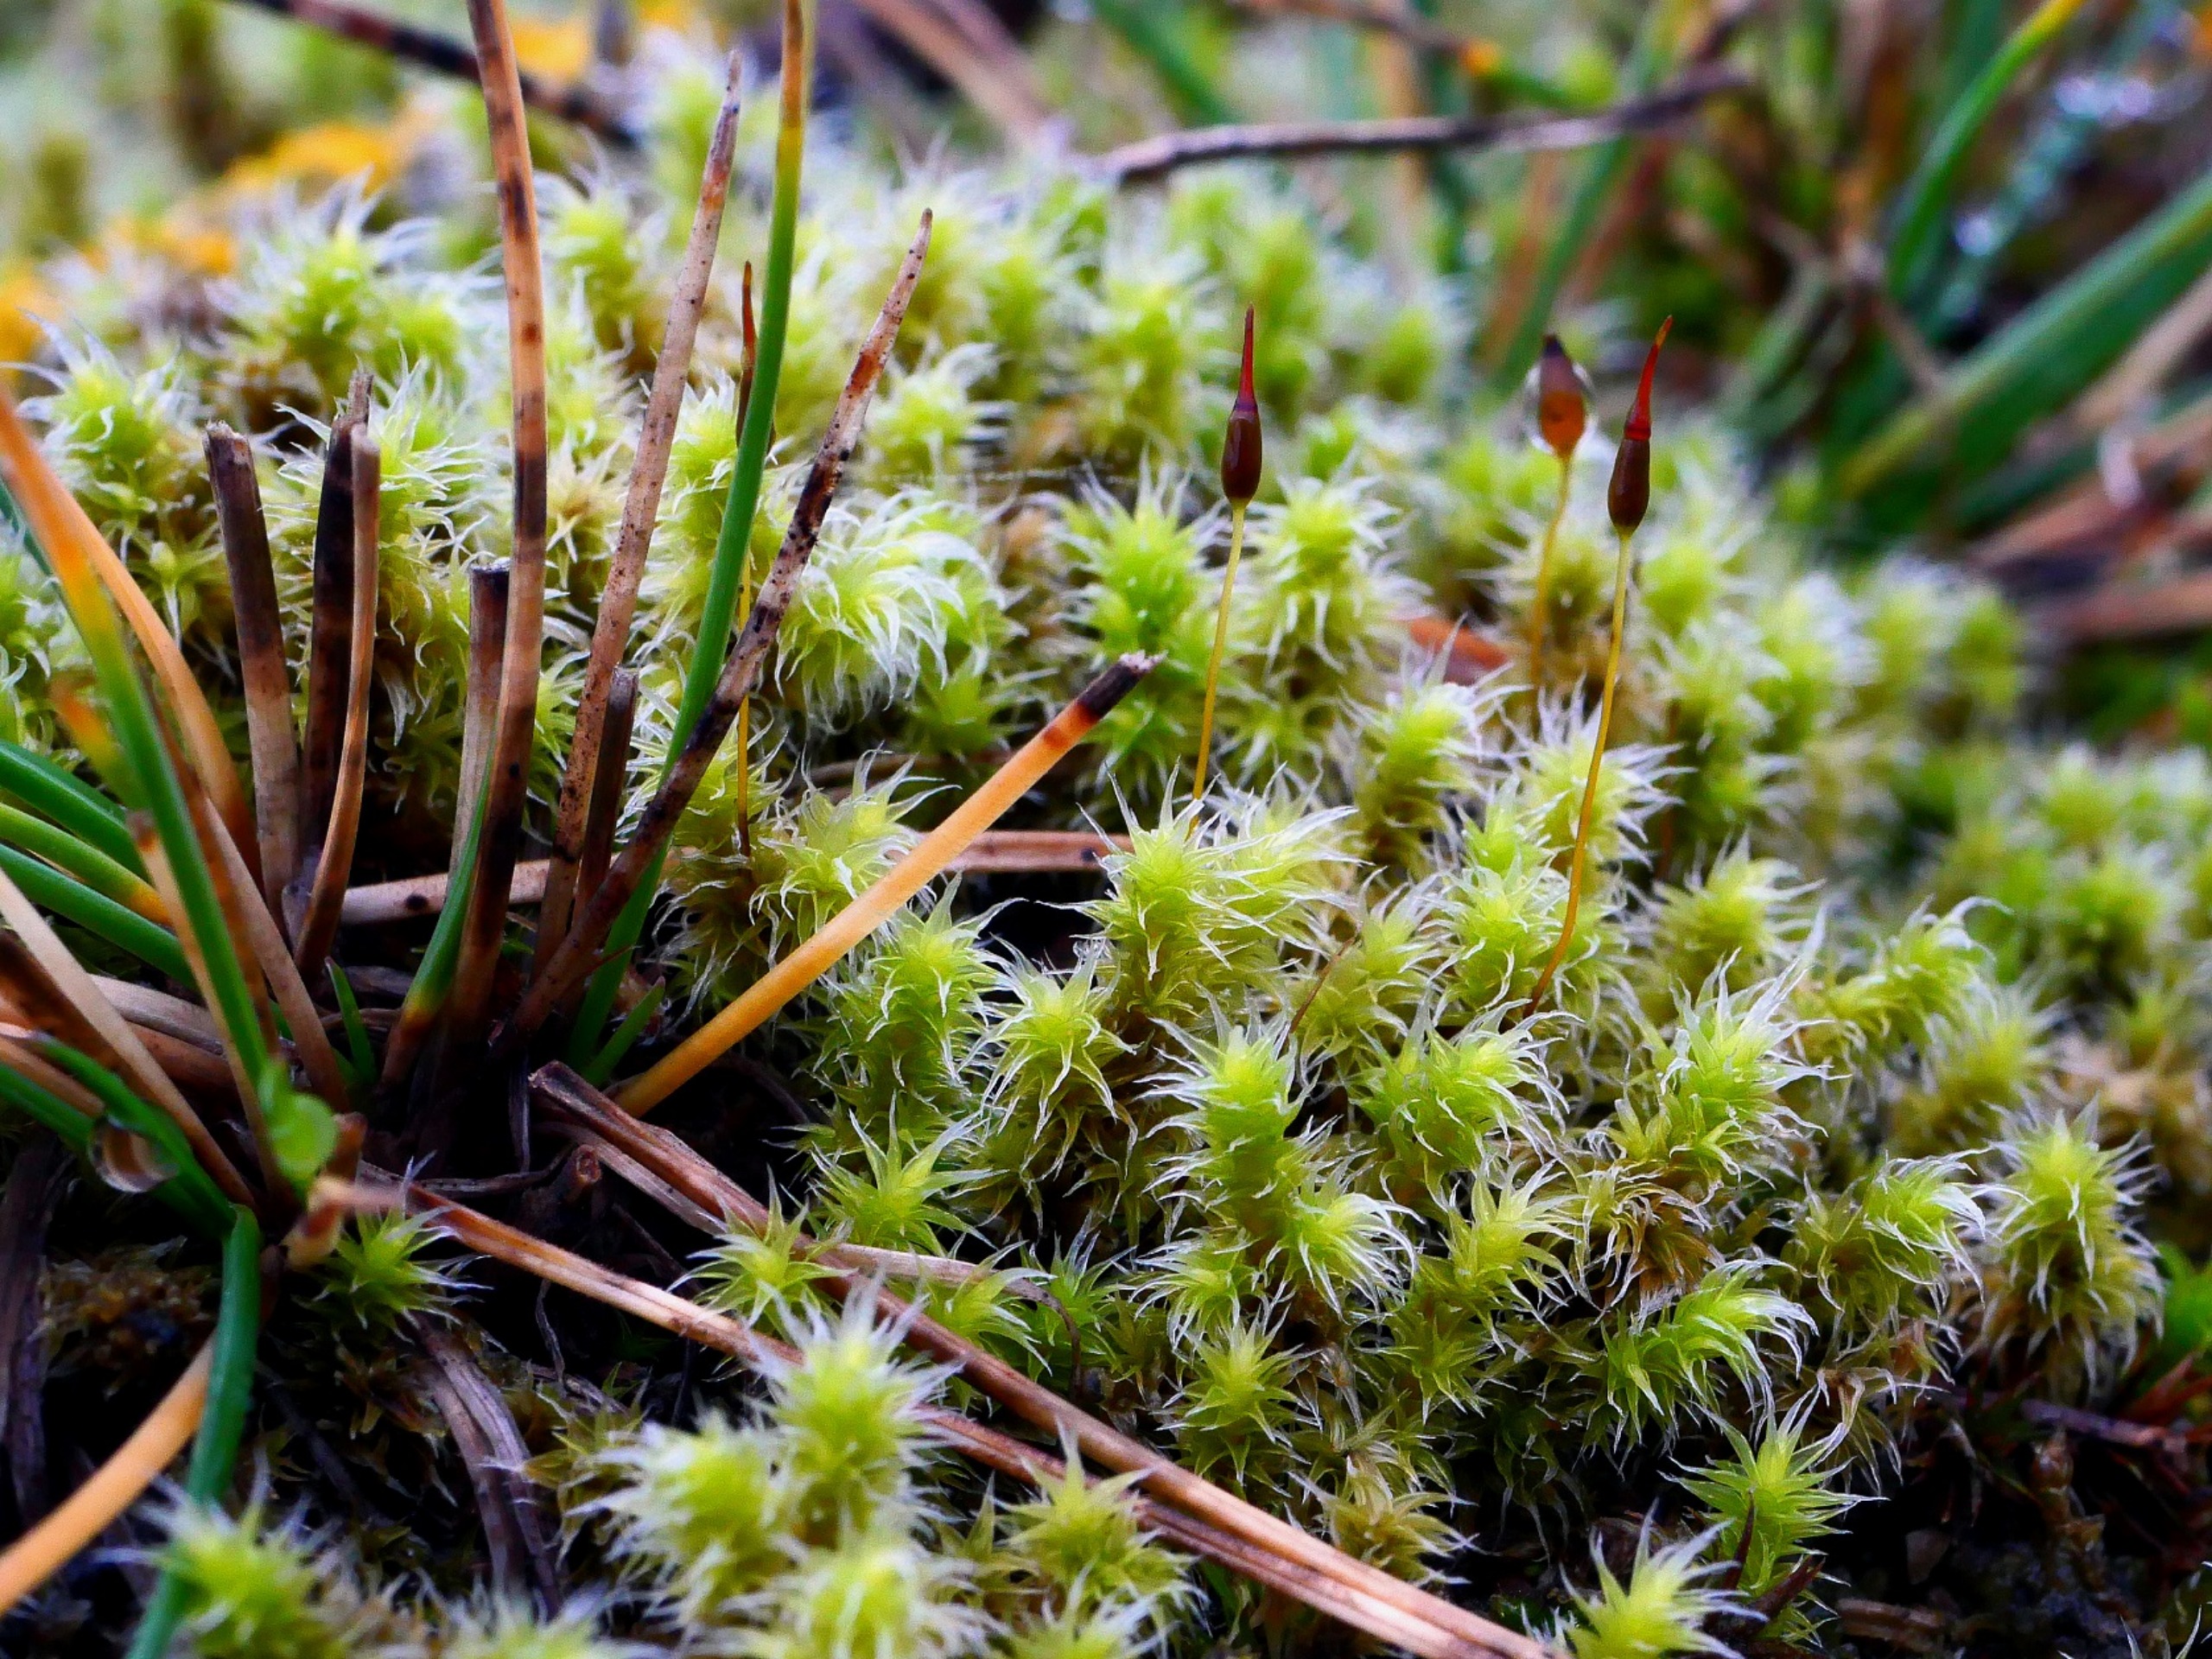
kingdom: Plantae
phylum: Bryophyta
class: Bryopsida
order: Grimmiales
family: Grimmiaceae
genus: Niphotrichum
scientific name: Niphotrichum canescens
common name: Sand-børstemos
